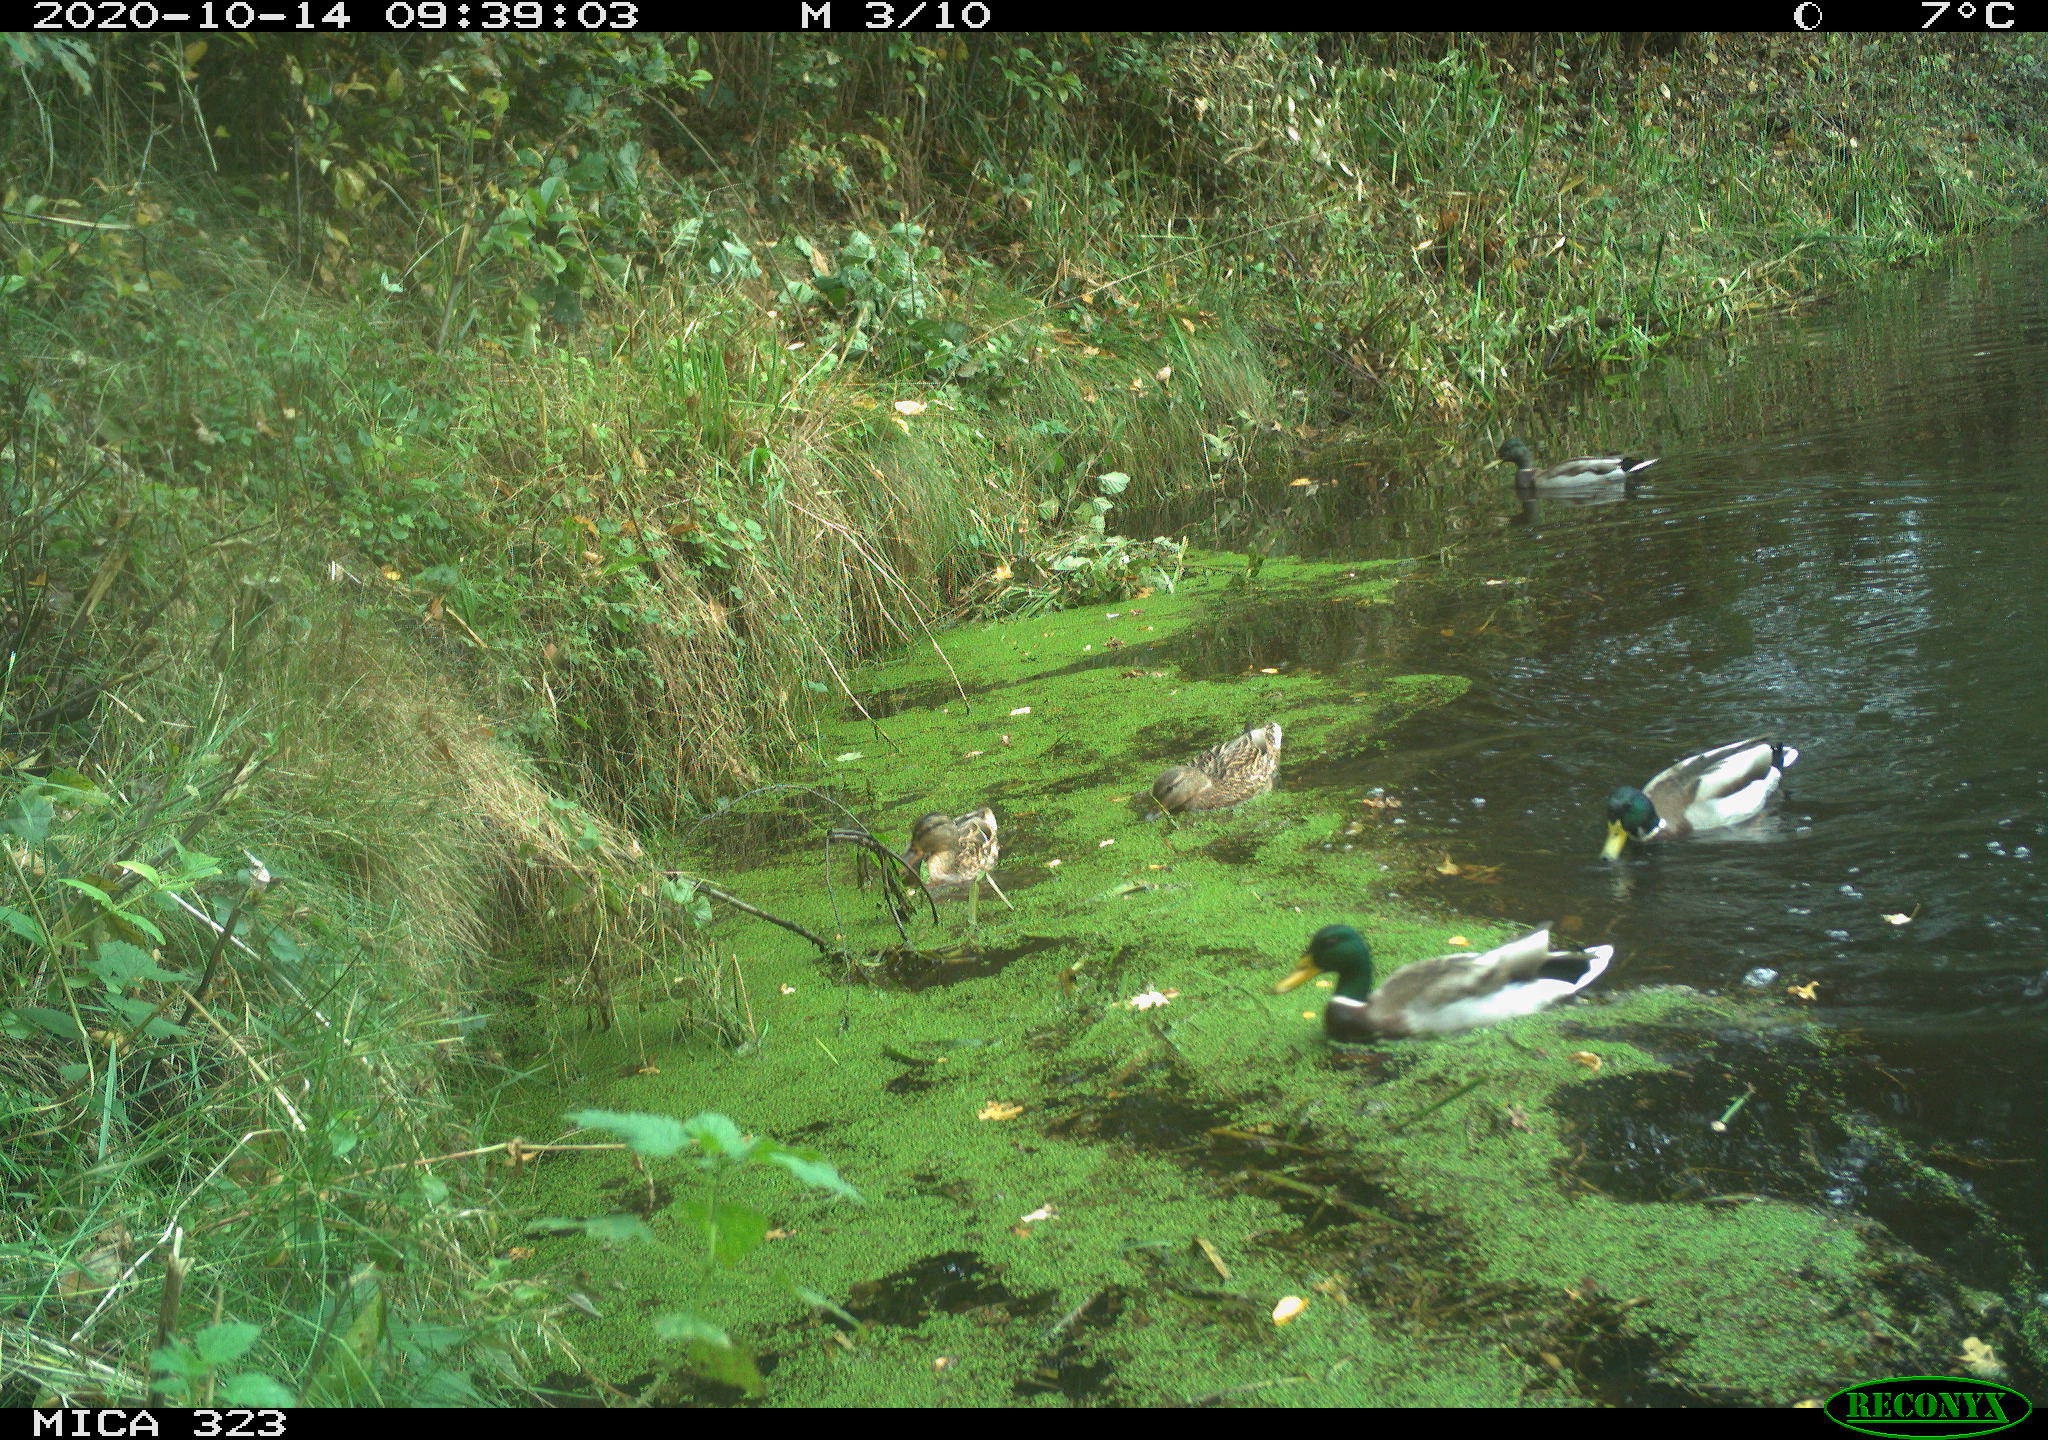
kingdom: Animalia
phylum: Chordata
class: Aves
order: Anseriformes
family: Anatidae
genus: Anas
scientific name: Anas platyrhynchos
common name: Mallard
